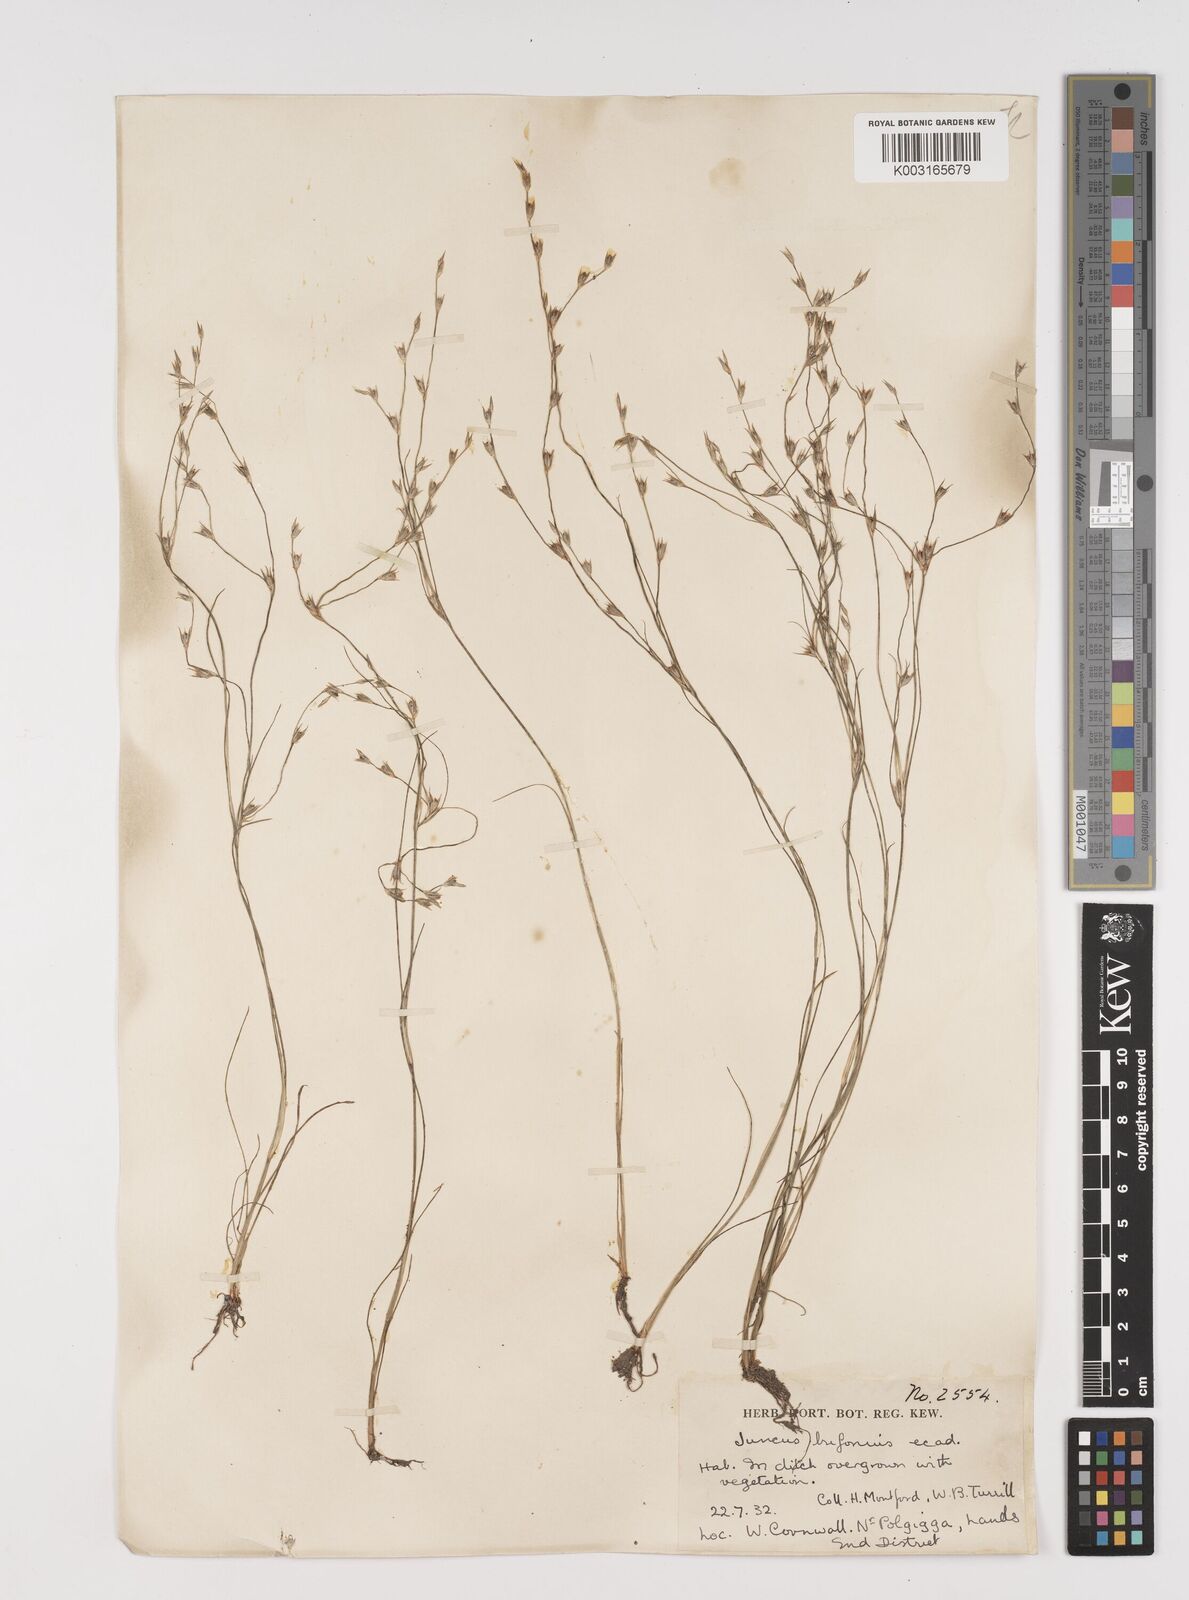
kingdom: Plantae
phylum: Tracheophyta
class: Liliopsida
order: Poales
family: Juncaceae
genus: Juncus
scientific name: Juncus bufonius
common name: Toad rush
